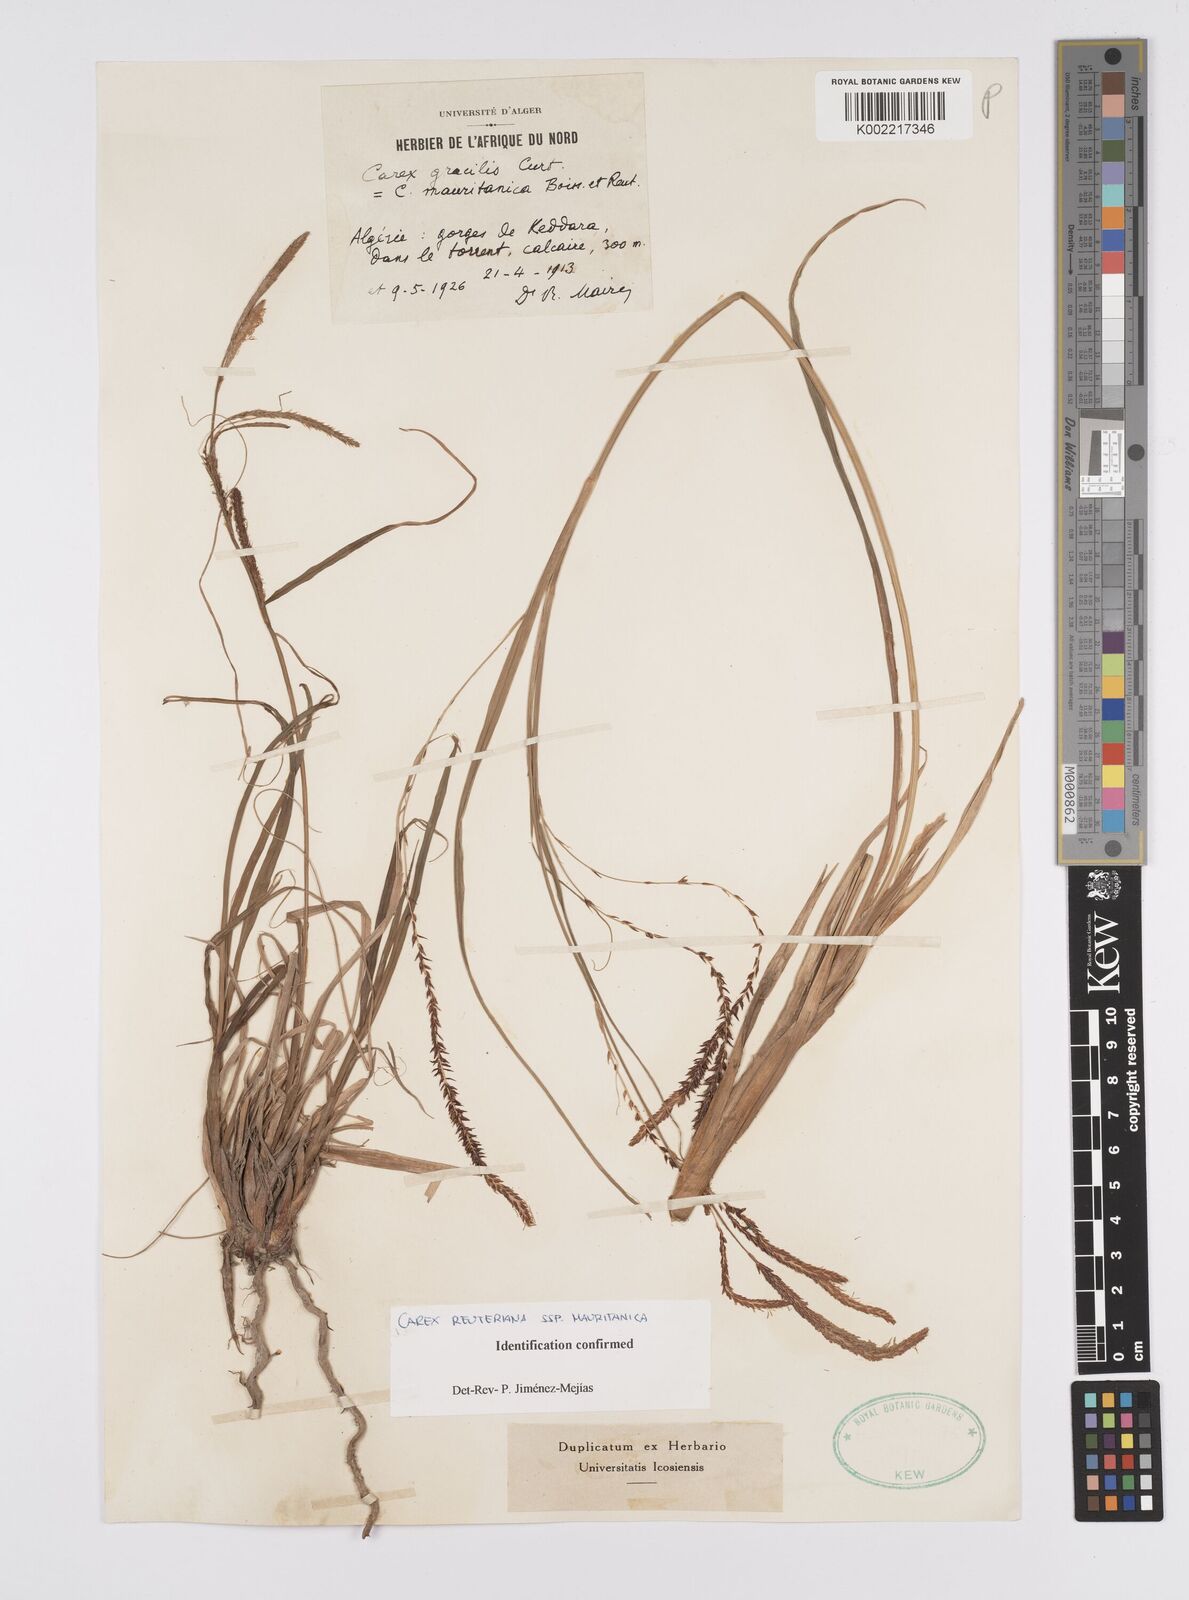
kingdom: Plantae
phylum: Tracheophyta
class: Liliopsida
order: Poales
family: Cyperaceae
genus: Carex
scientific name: Carex reuteriana
